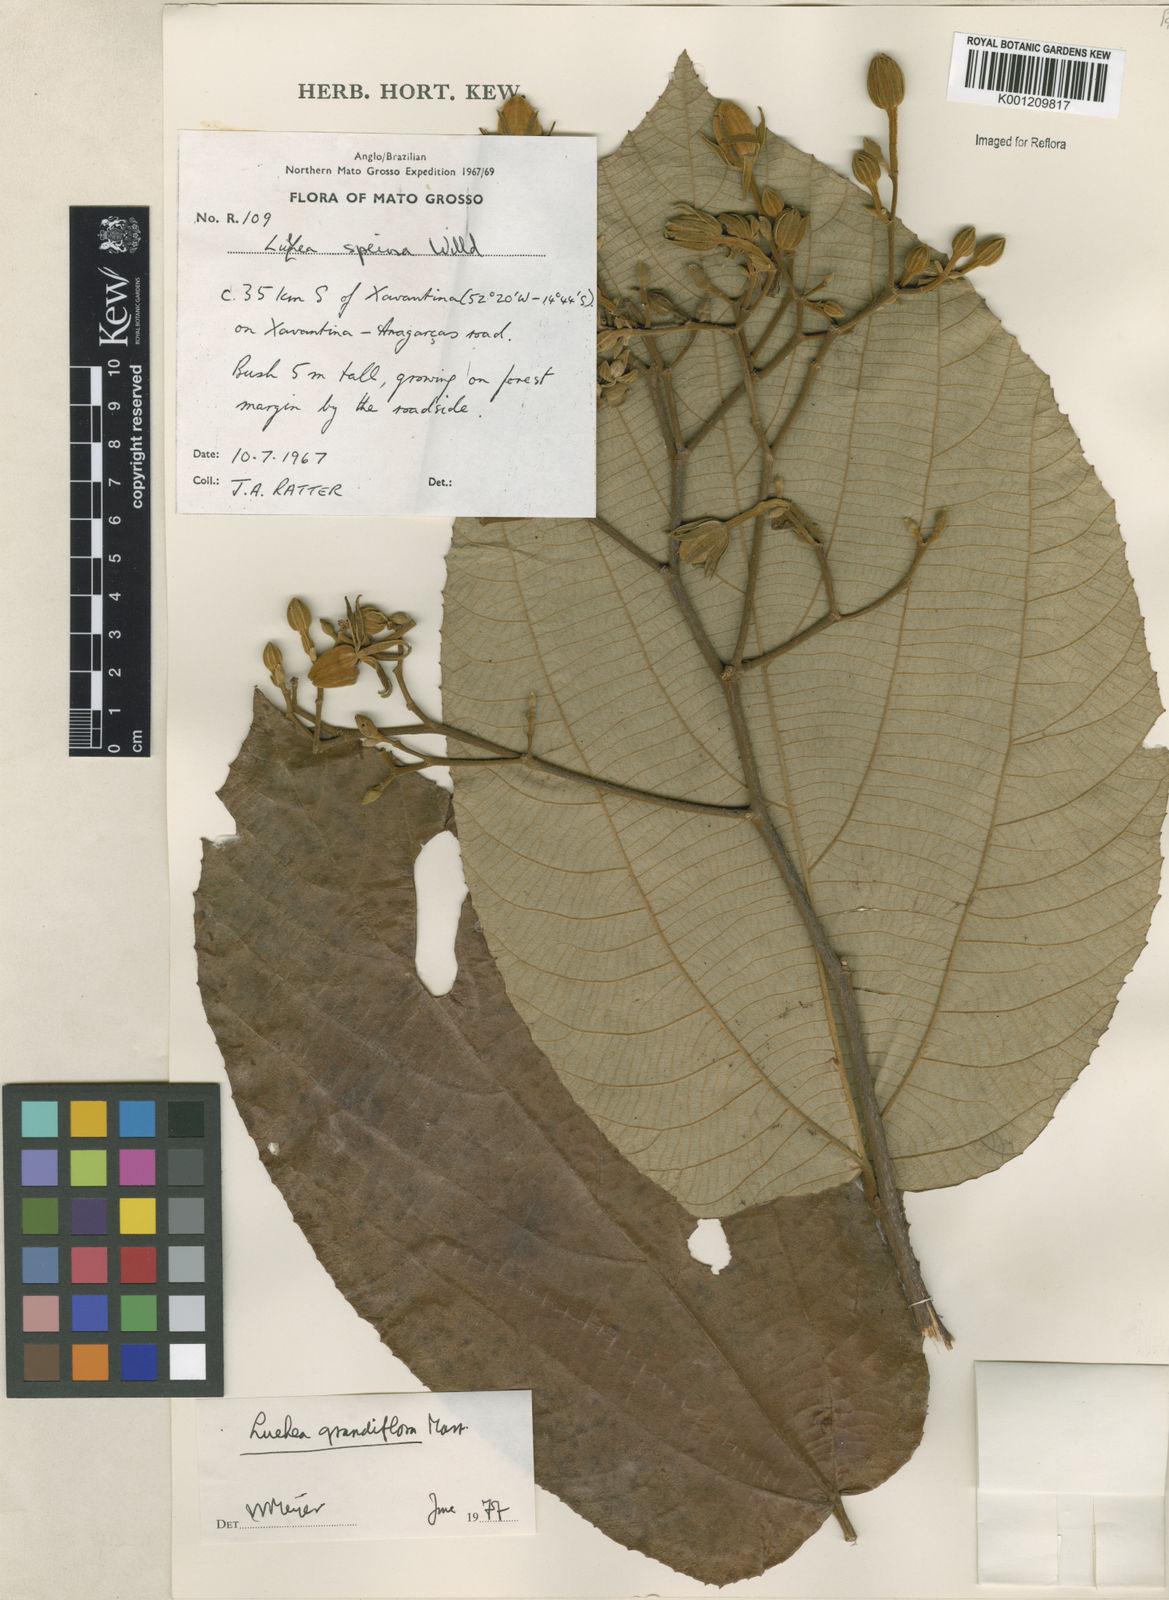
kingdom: Plantae
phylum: Tracheophyta
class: Magnoliopsida
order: Malvales
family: Malvaceae
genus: Luehea
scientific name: Luehea grandiflora
